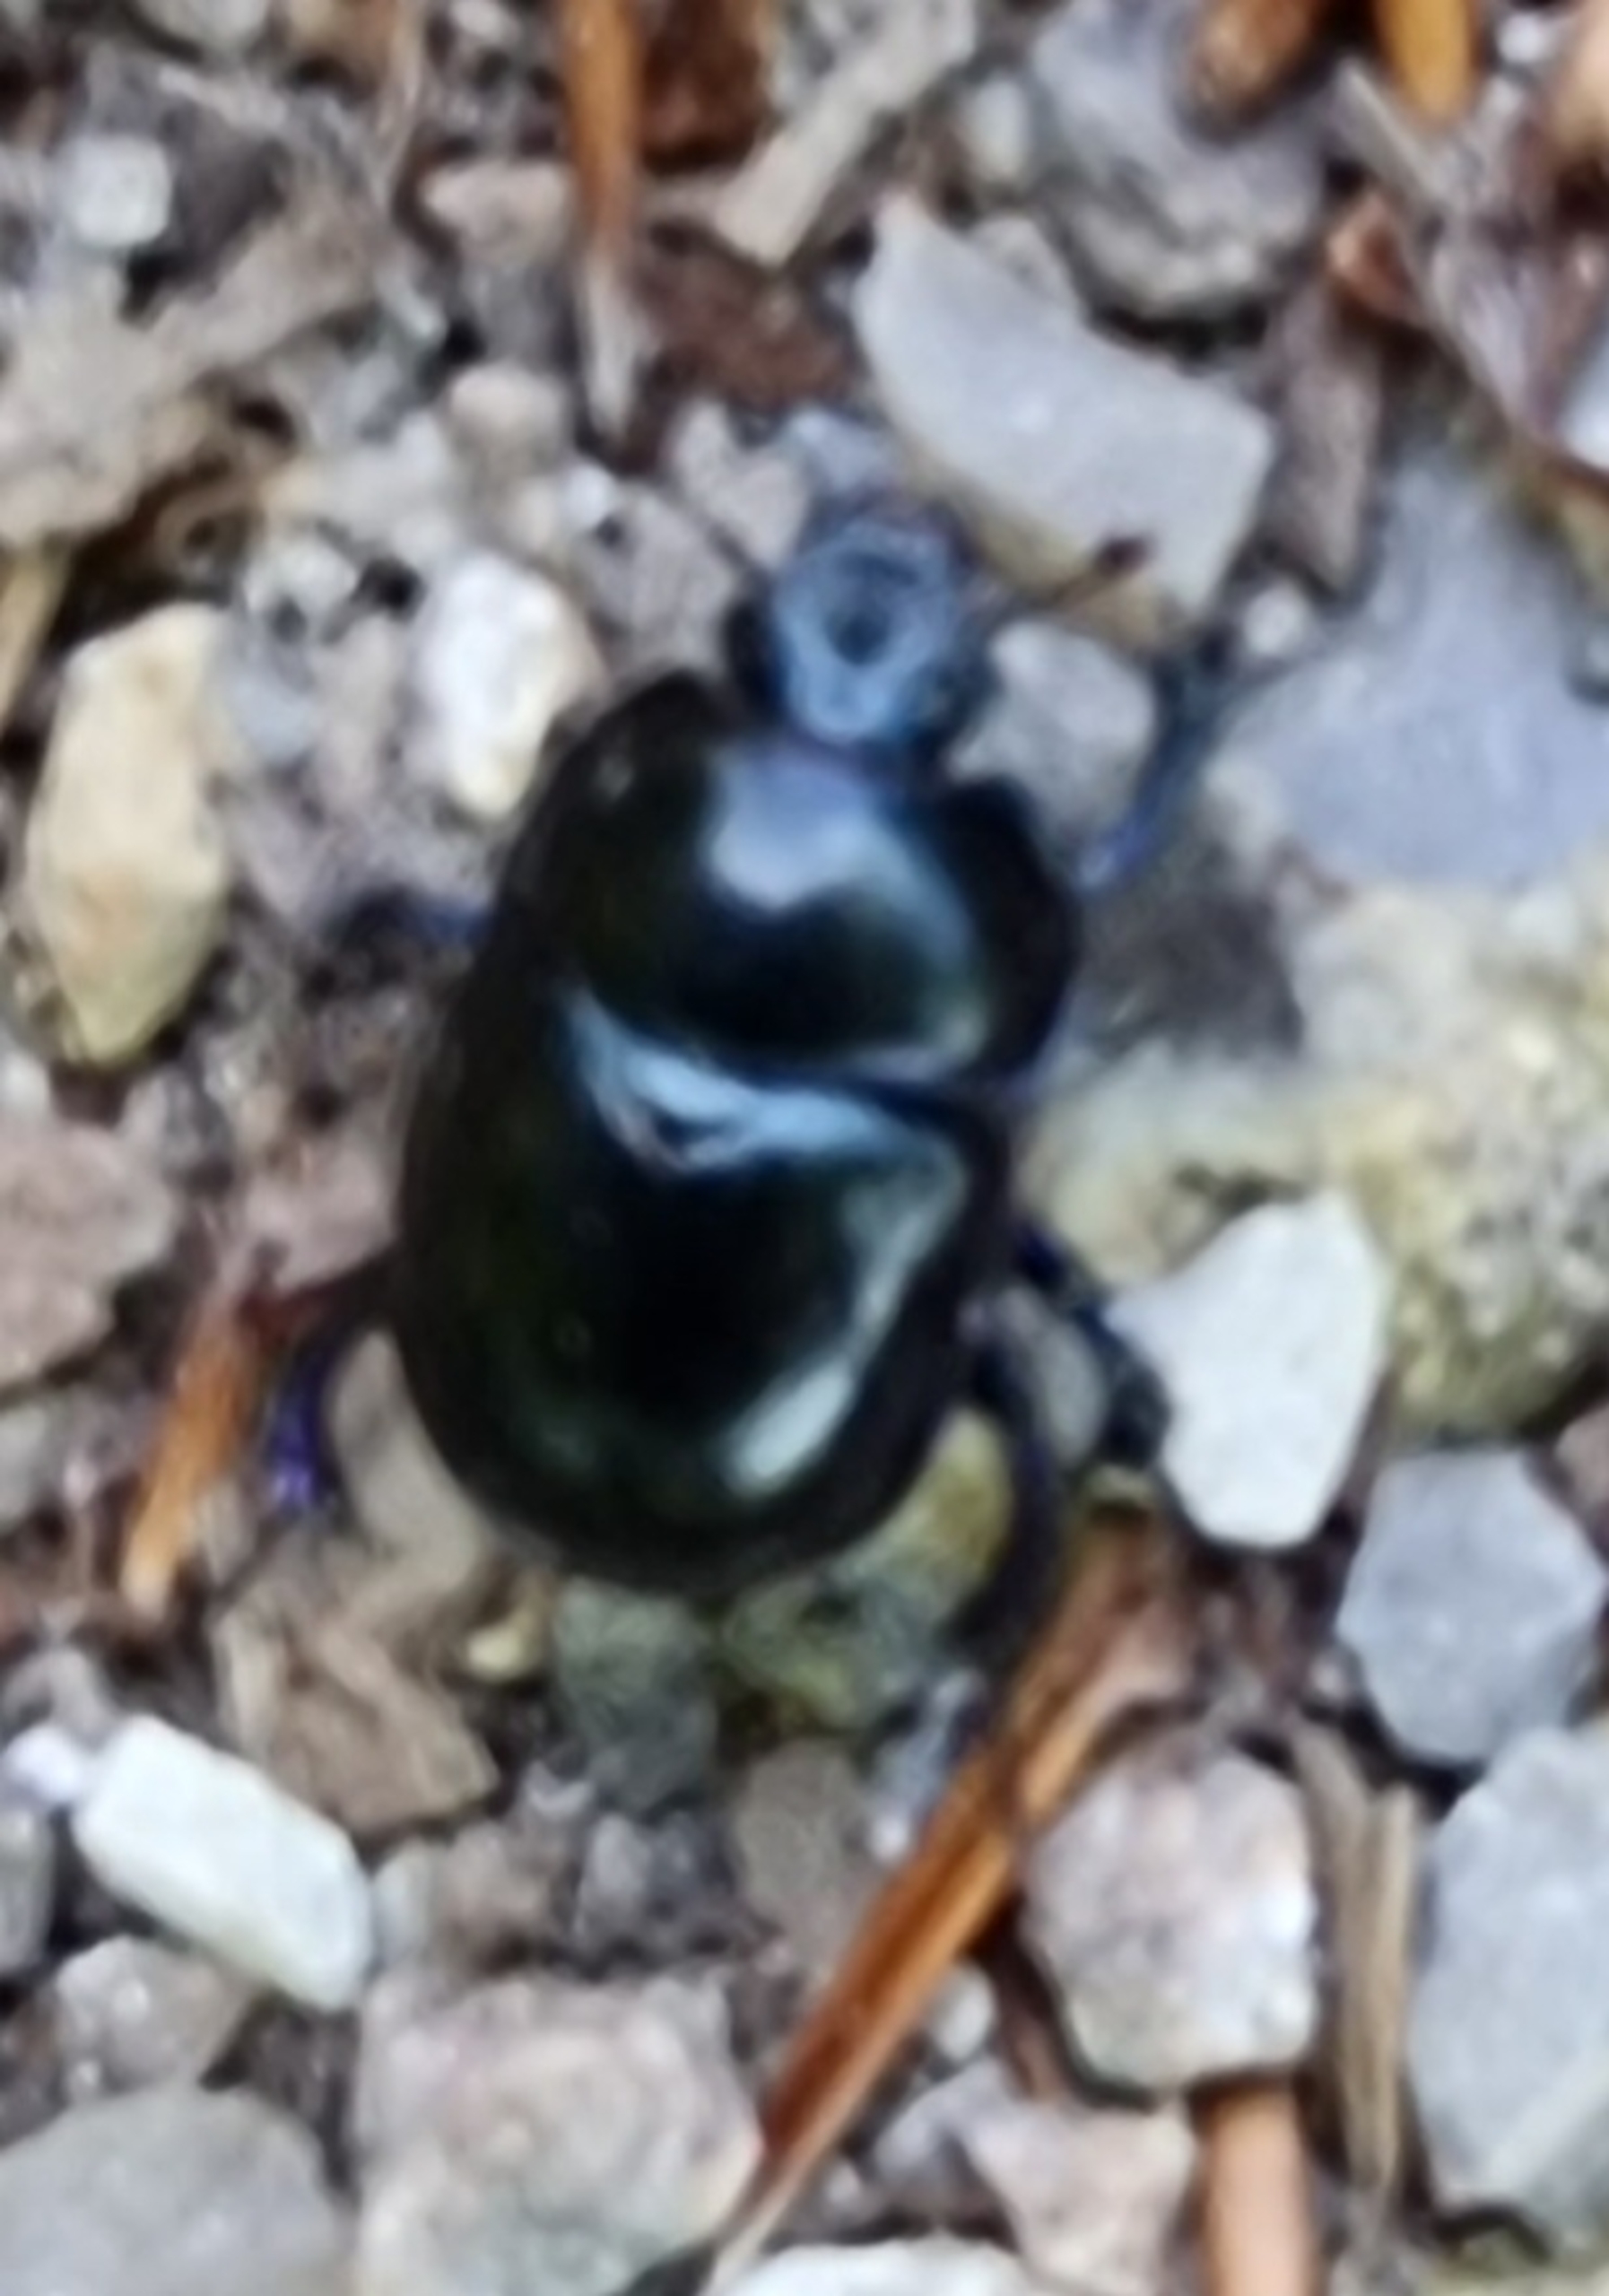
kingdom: Animalia
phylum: Arthropoda
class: Insecta
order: Coleoptera
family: Geotrupidae
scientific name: Geotrupidae
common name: Torbister
